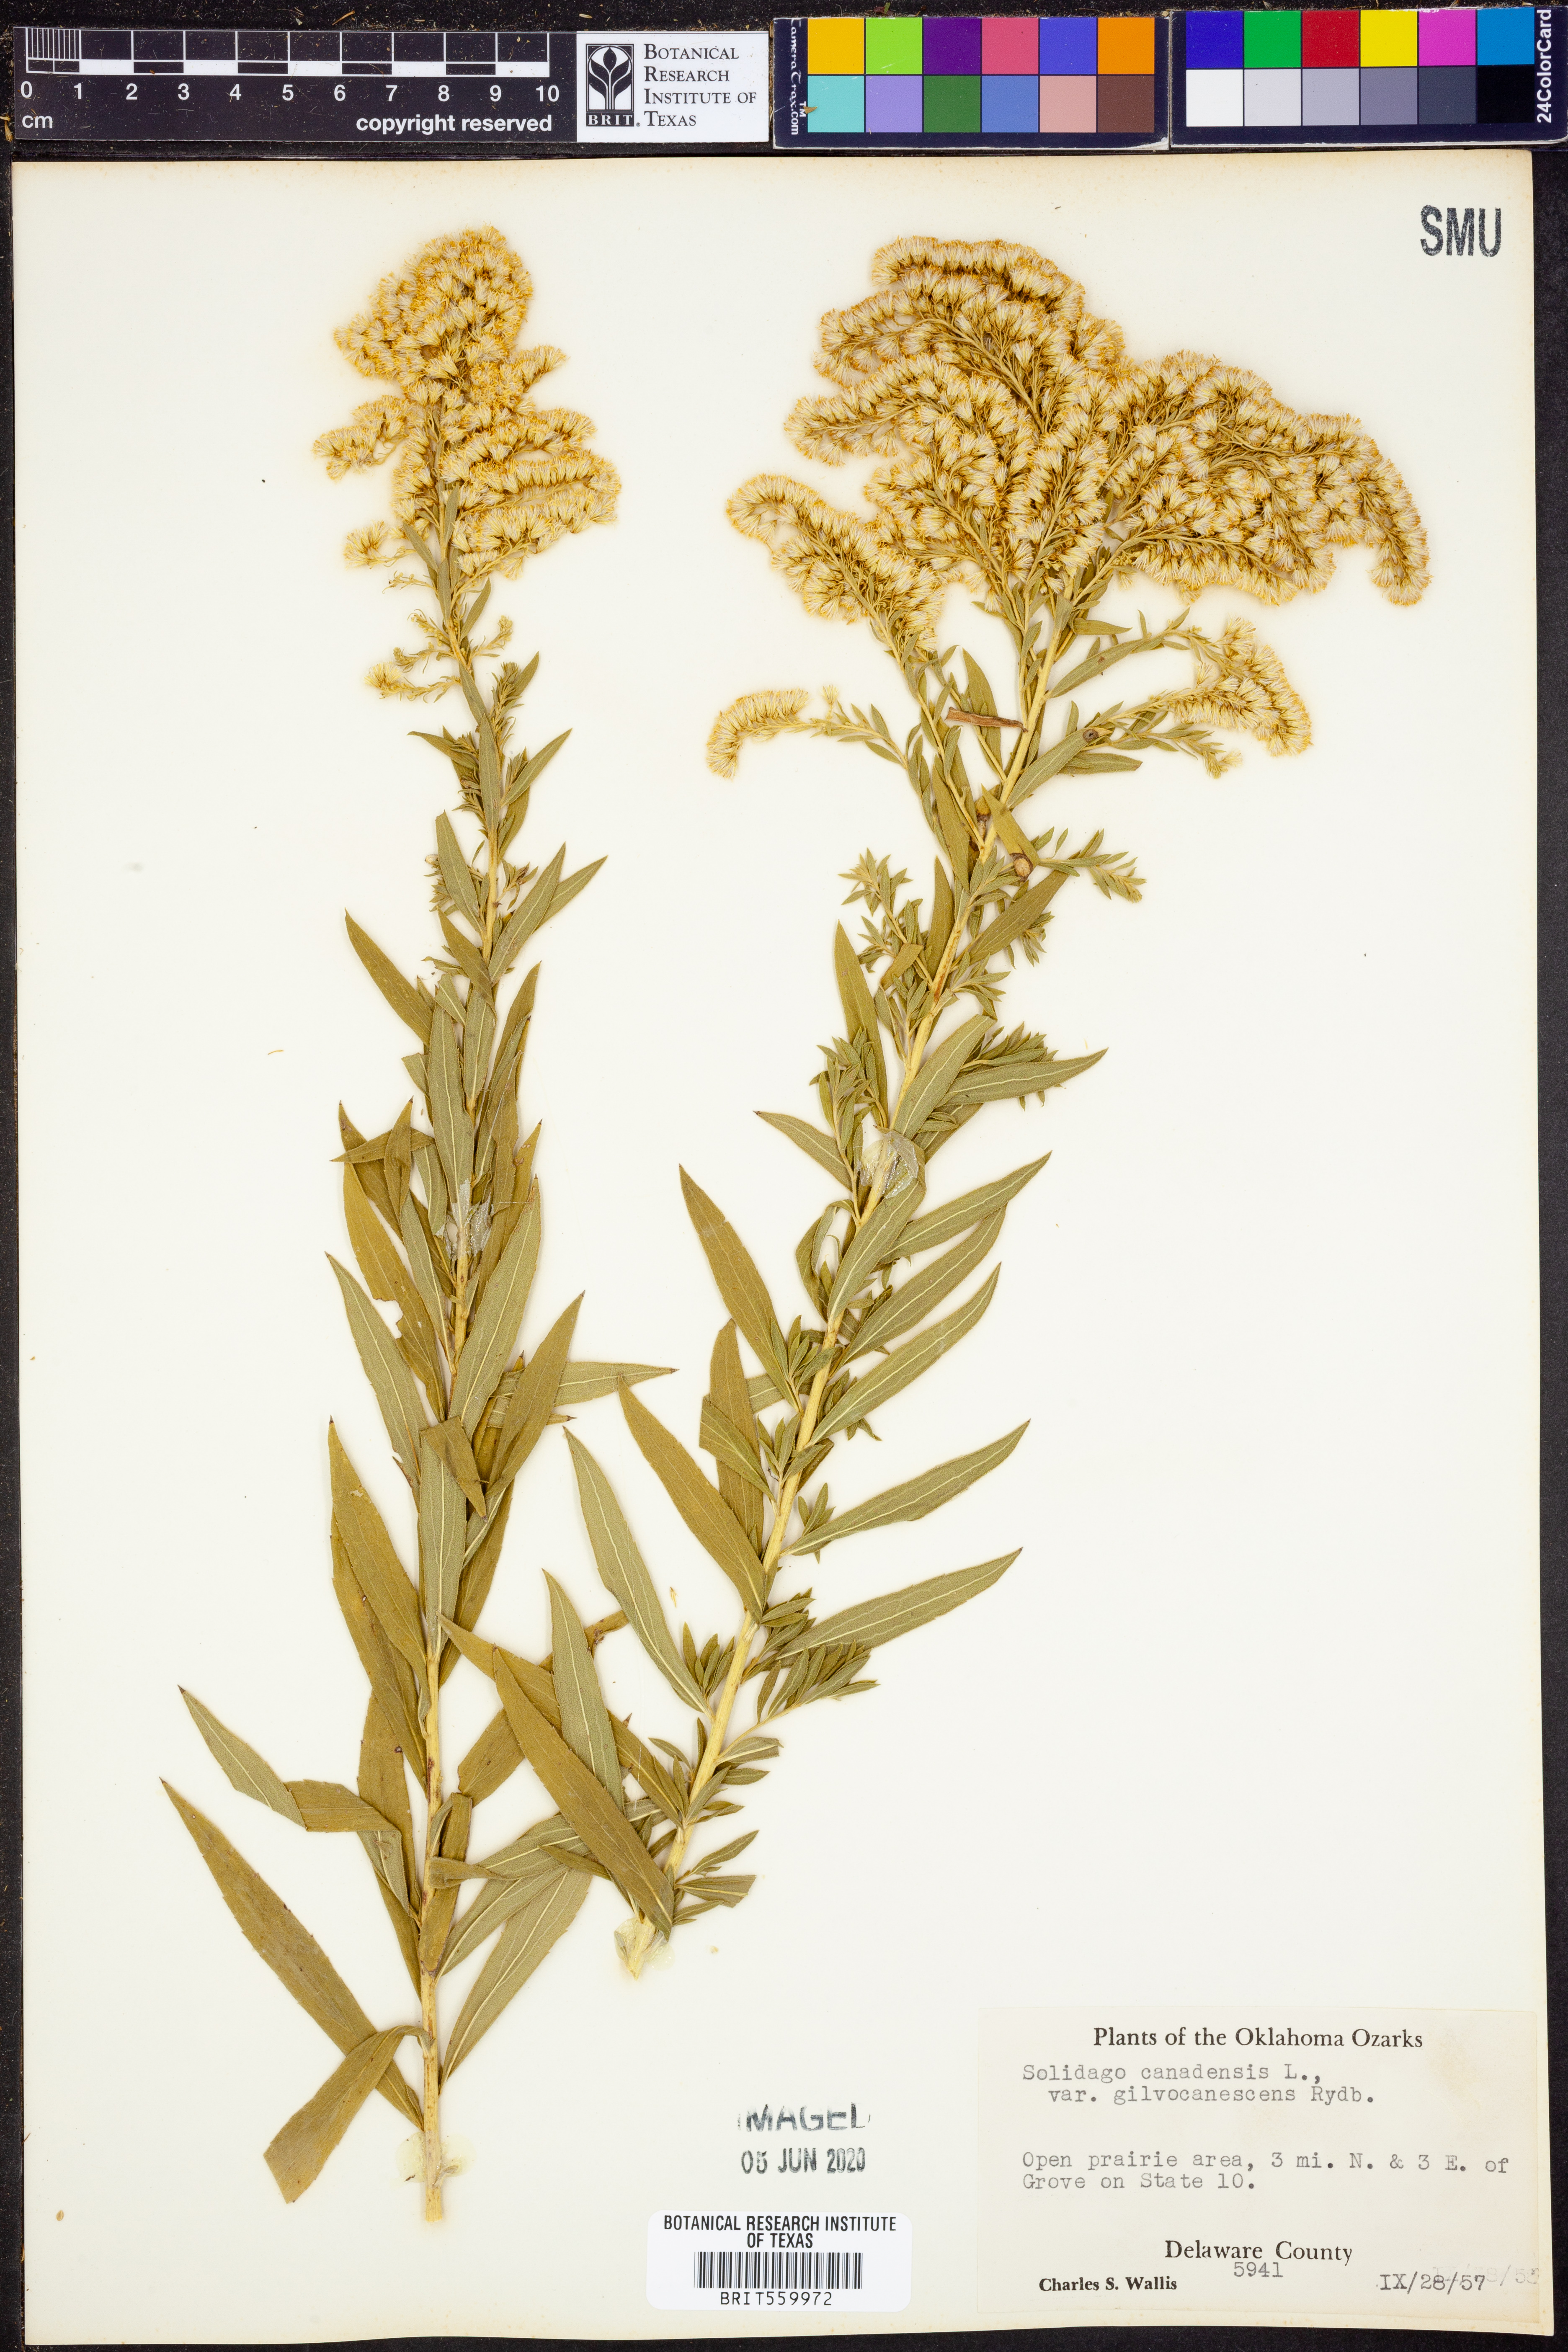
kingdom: Plantae
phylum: Tracheophyta
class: Magnoliopsida
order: Asterales
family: Asteraceae
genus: Solidago
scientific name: Solidago altissima
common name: Late goldenrod
